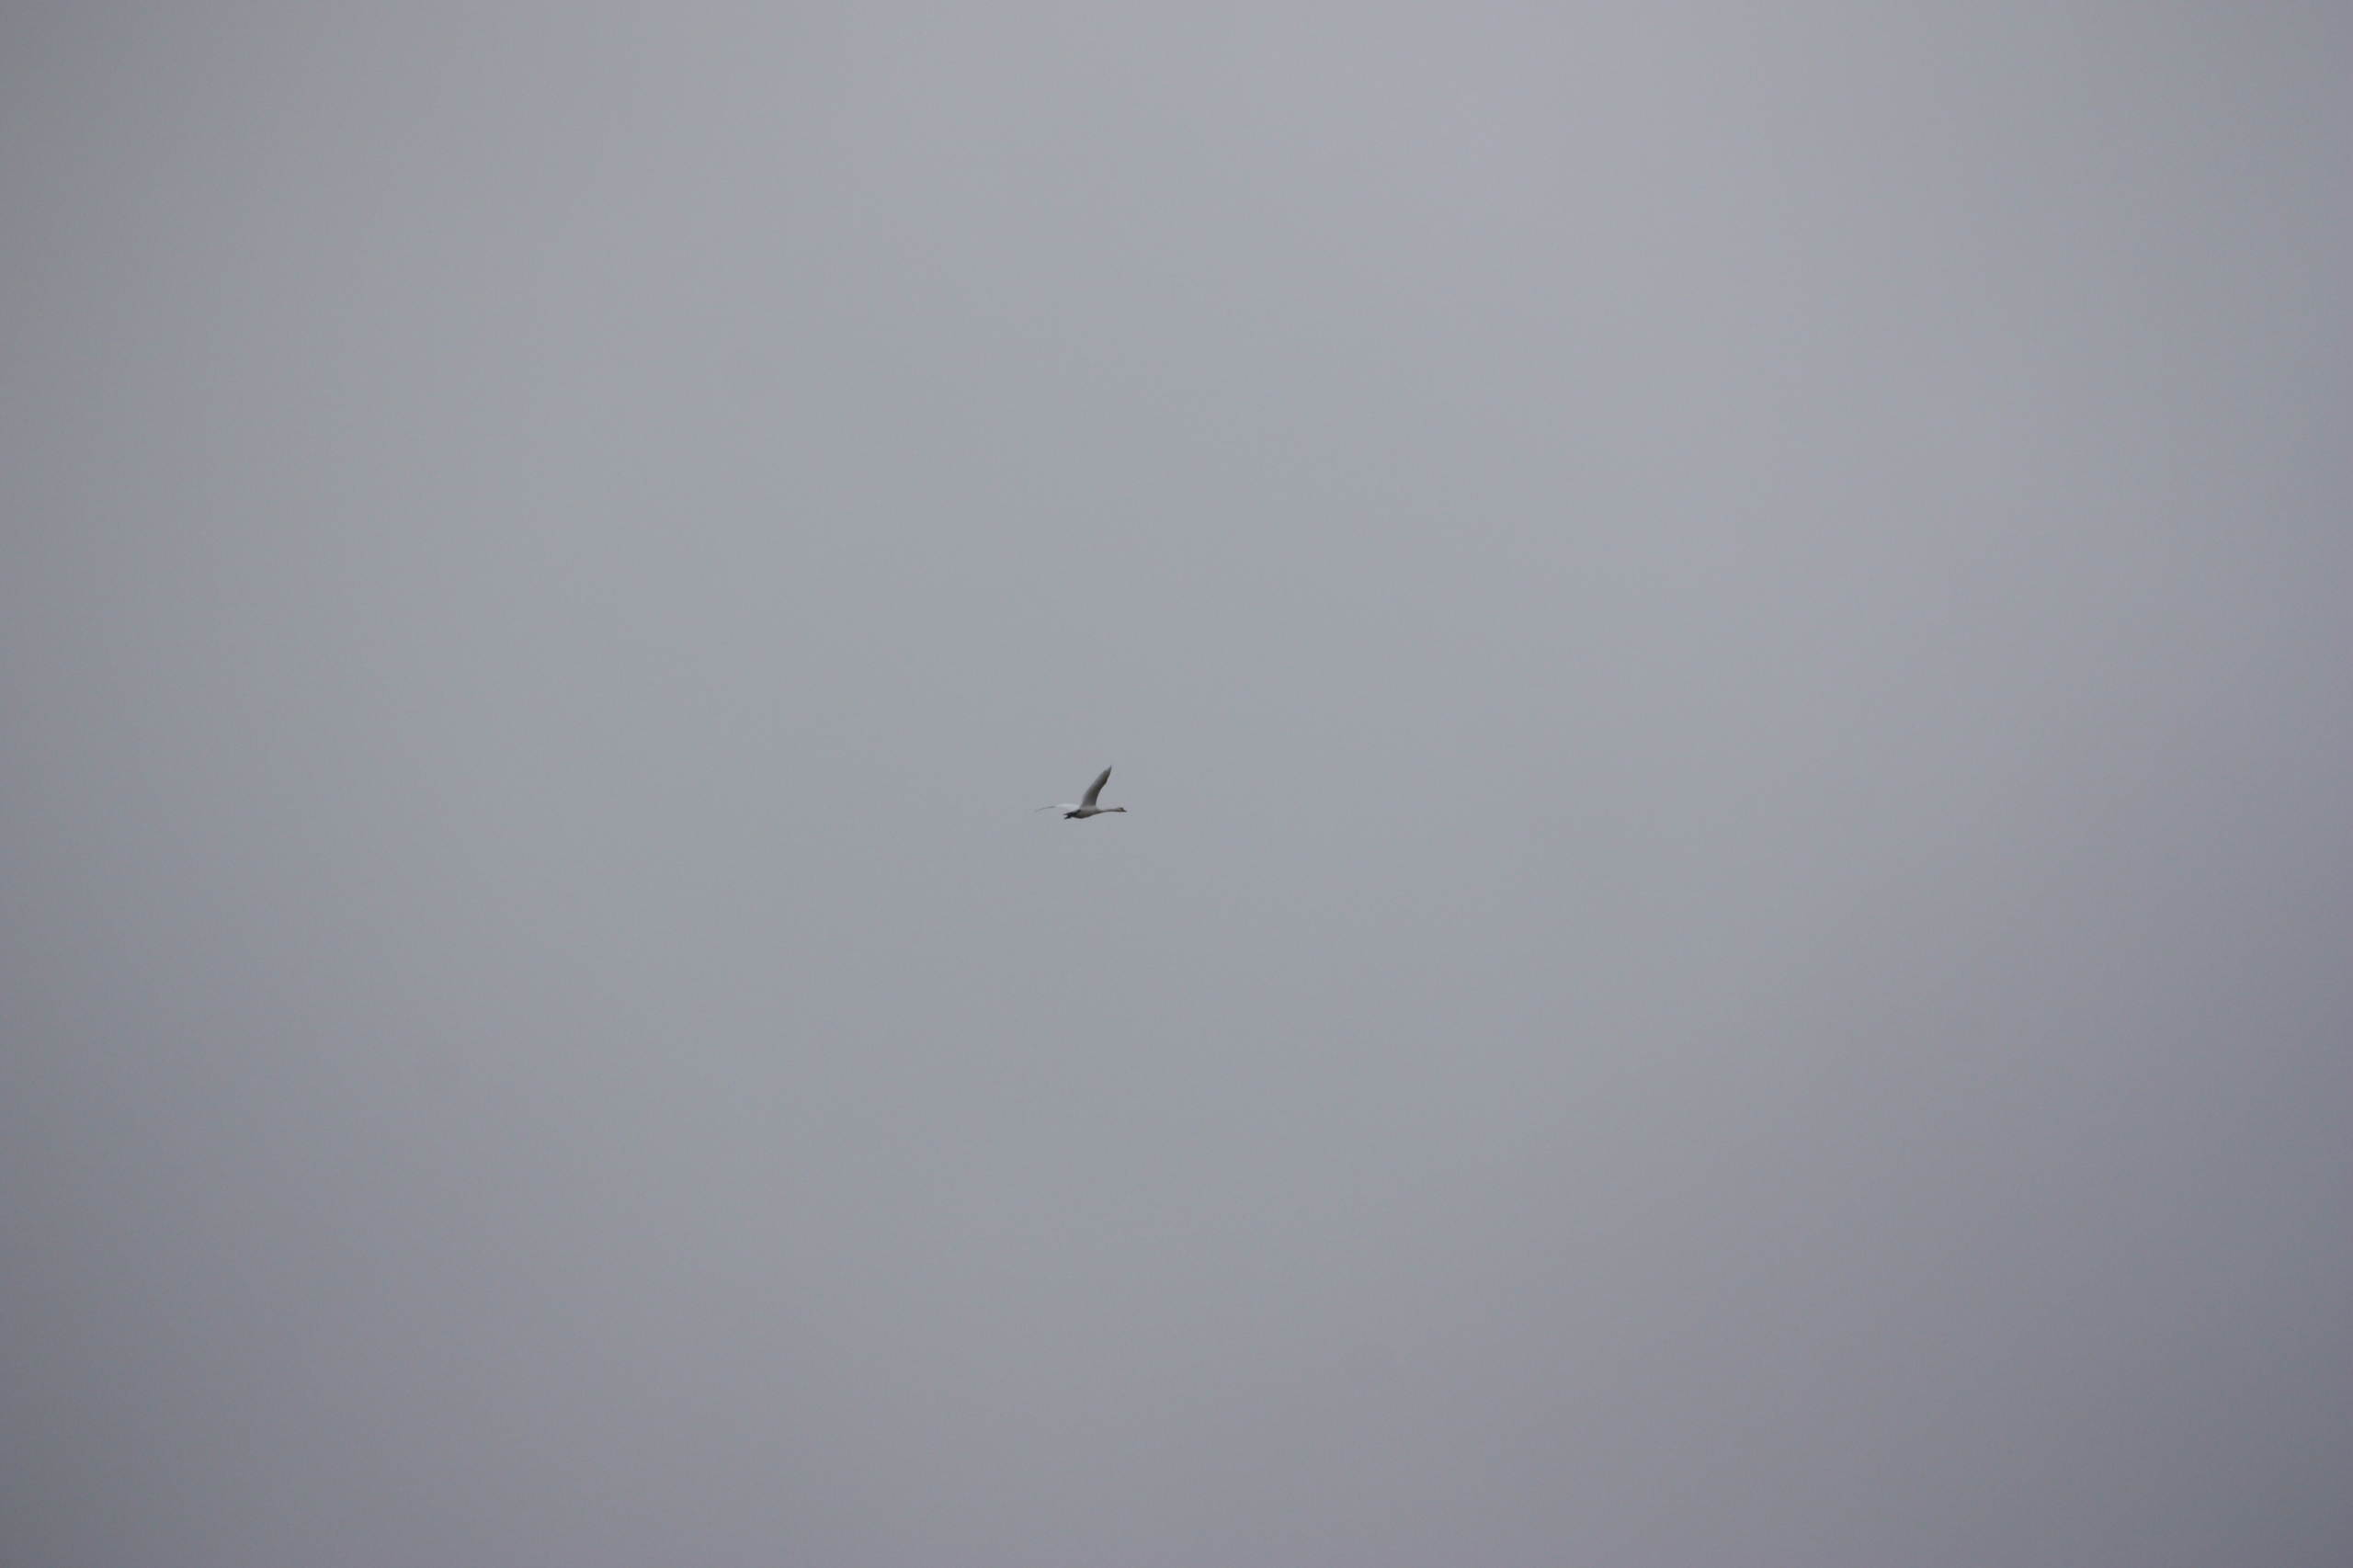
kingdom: Animalia
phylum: Chordata
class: Aves
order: Anseriformes
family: Anatidae
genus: Cygnus
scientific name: Cygnus olor
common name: Knopsvane
